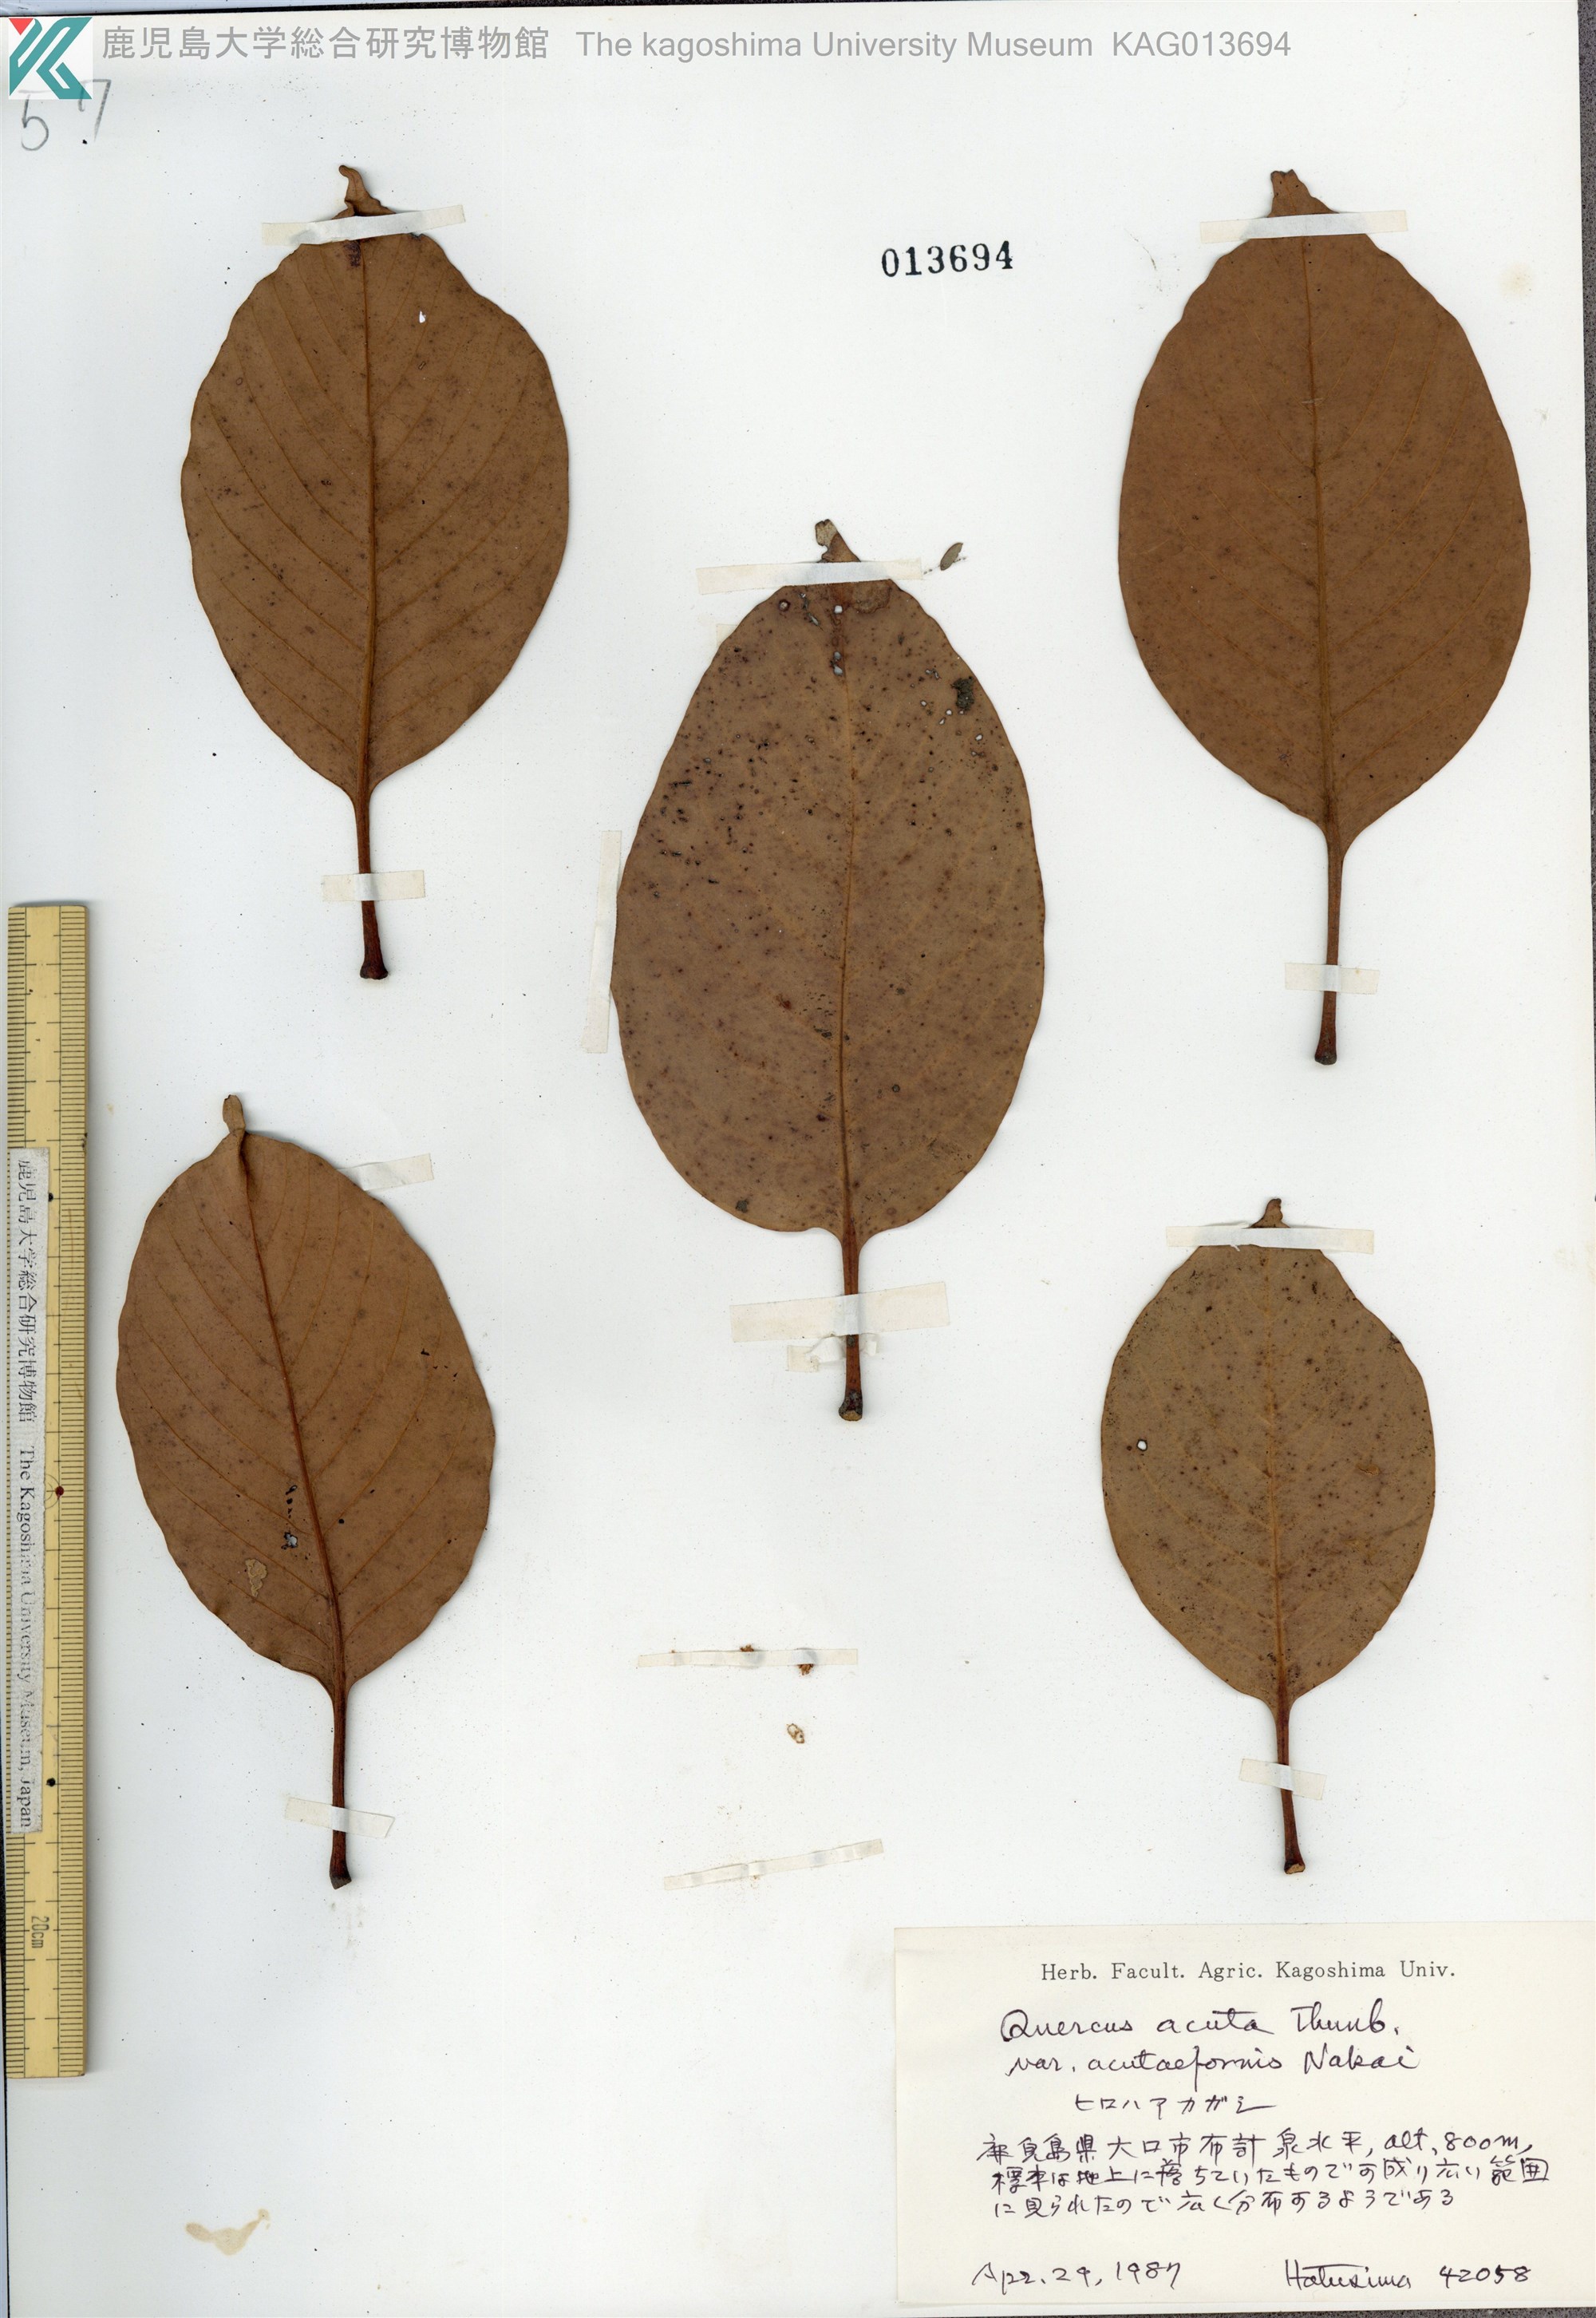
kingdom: Plantae
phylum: Tracheophyta
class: Magnoliopsida
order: Fagales
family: Fagaceae
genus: Quercus
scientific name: Quercus acuta
